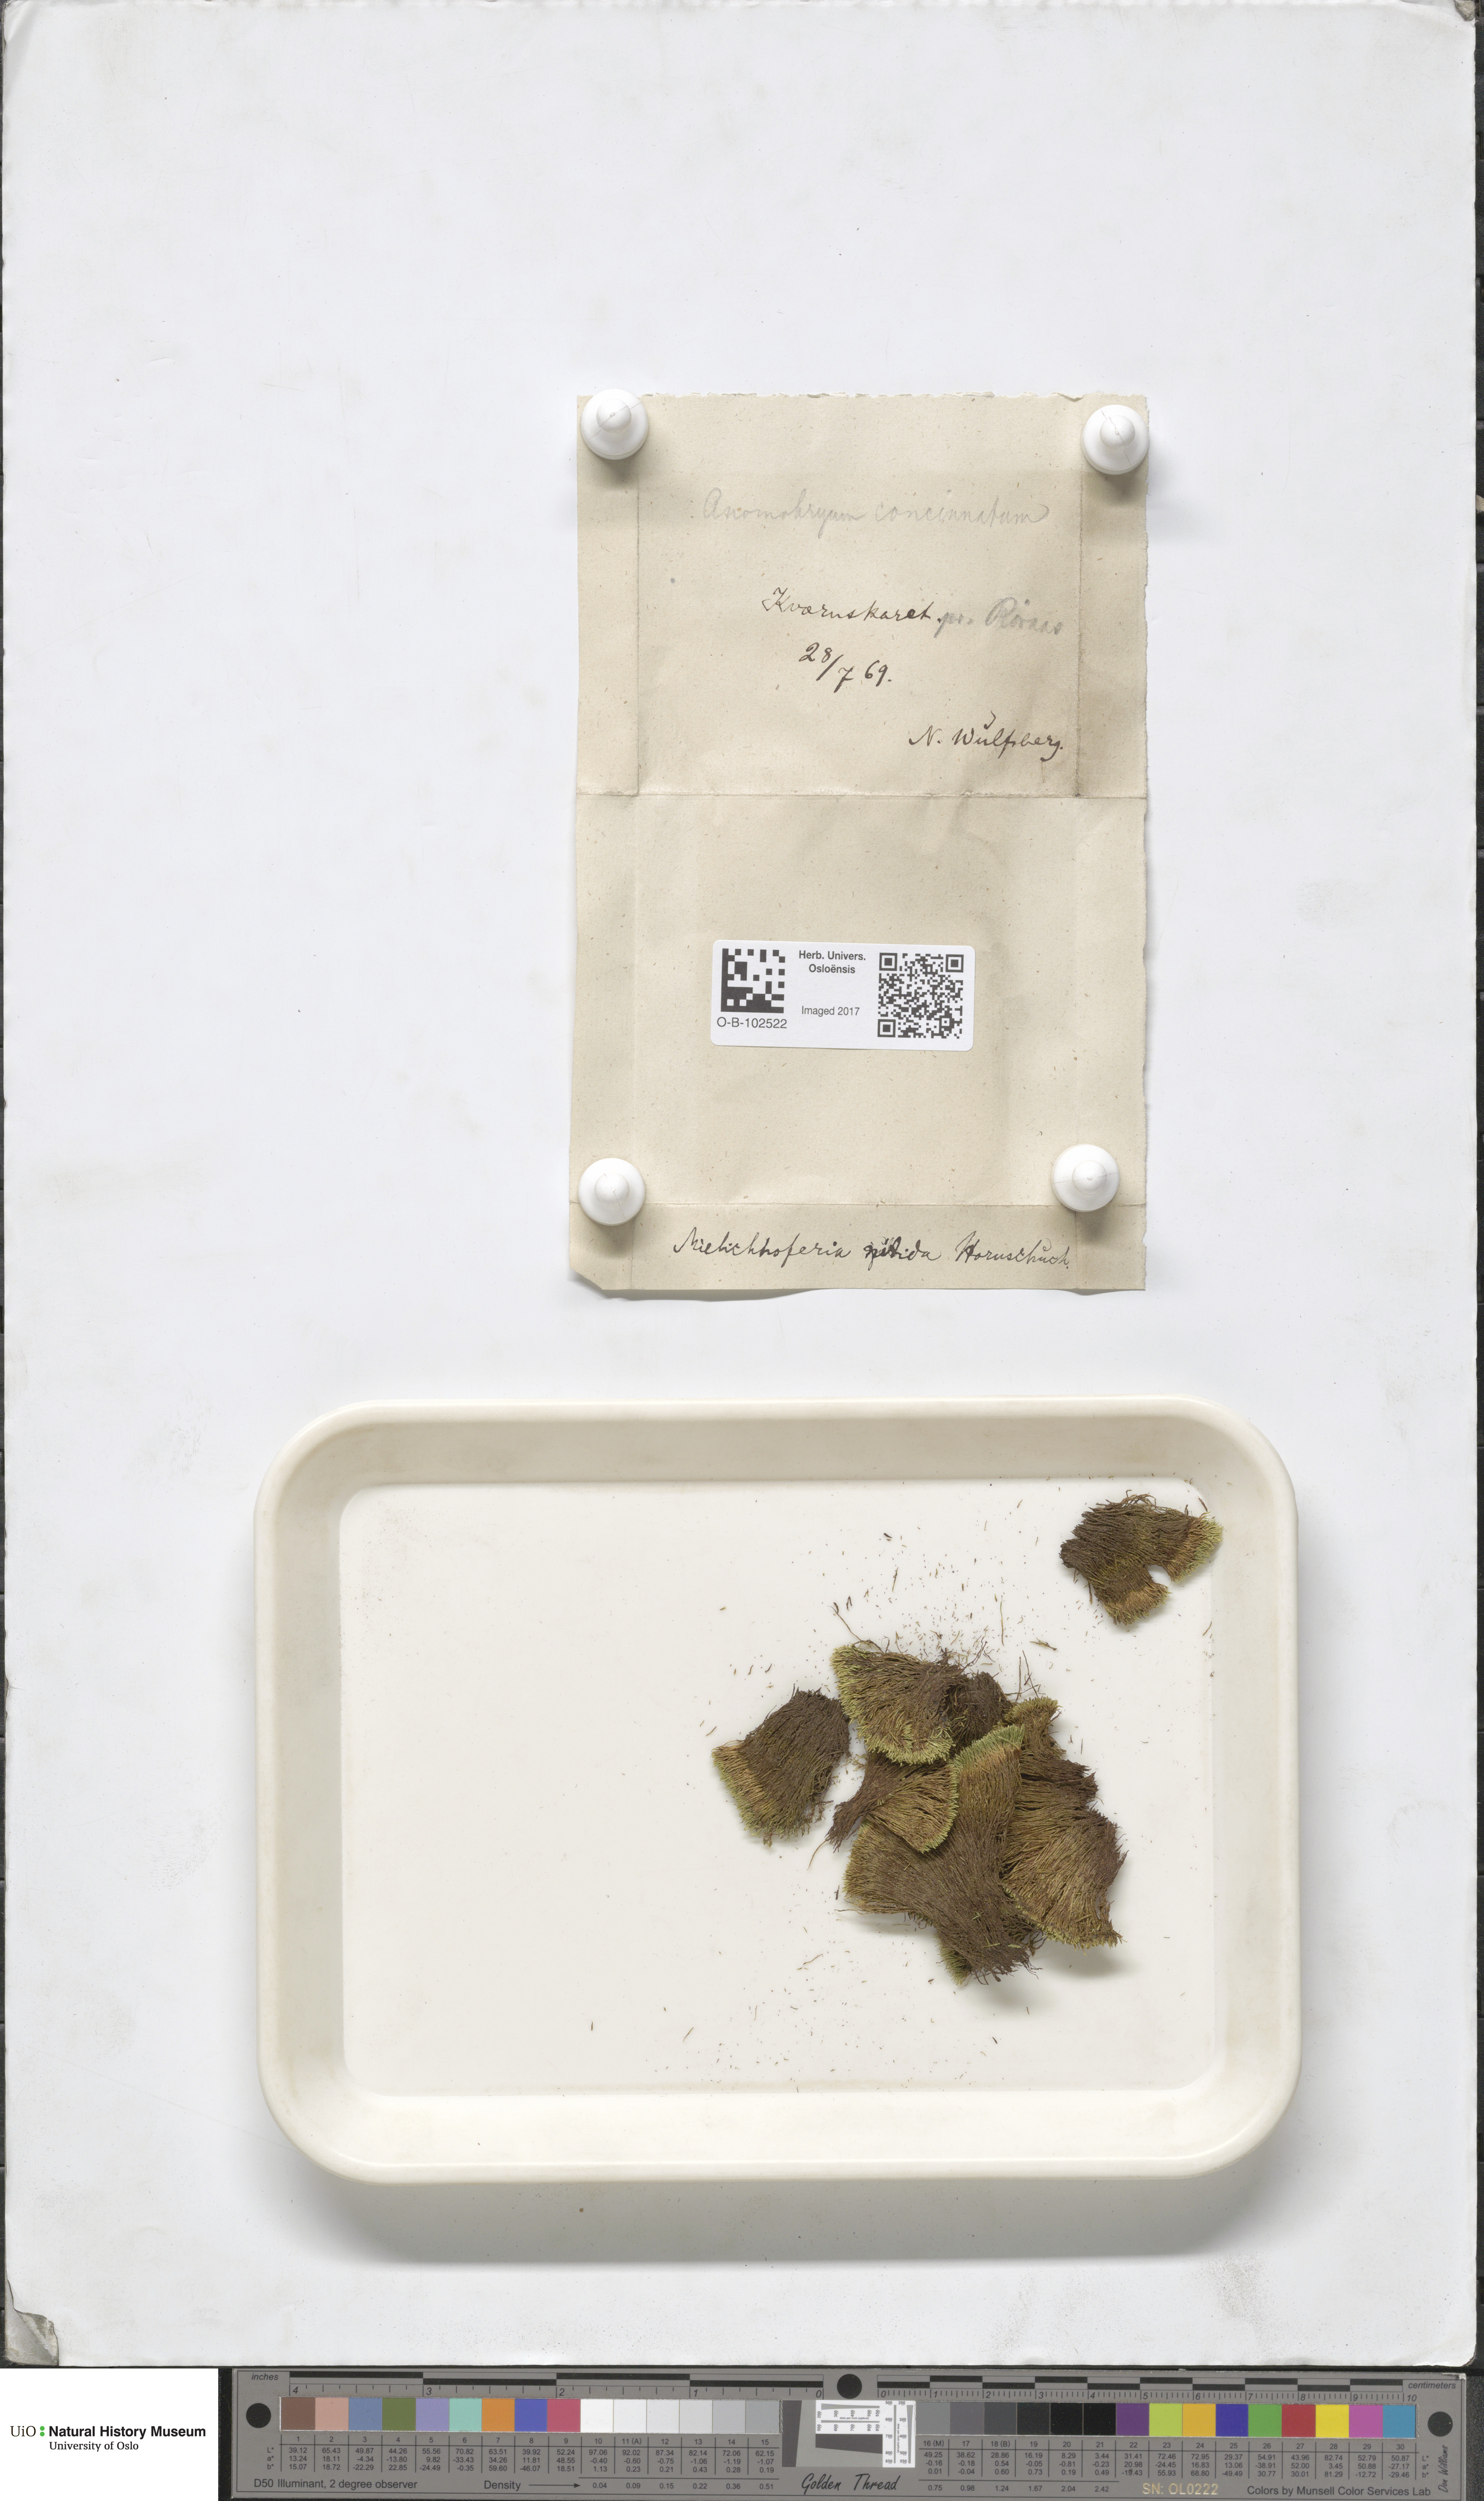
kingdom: Plantae
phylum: Bryophyta
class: Bryopsida
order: Bryales
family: Bryaceae
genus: Anomobryum
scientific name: Anomobryum julaceum
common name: Slender silver moss
